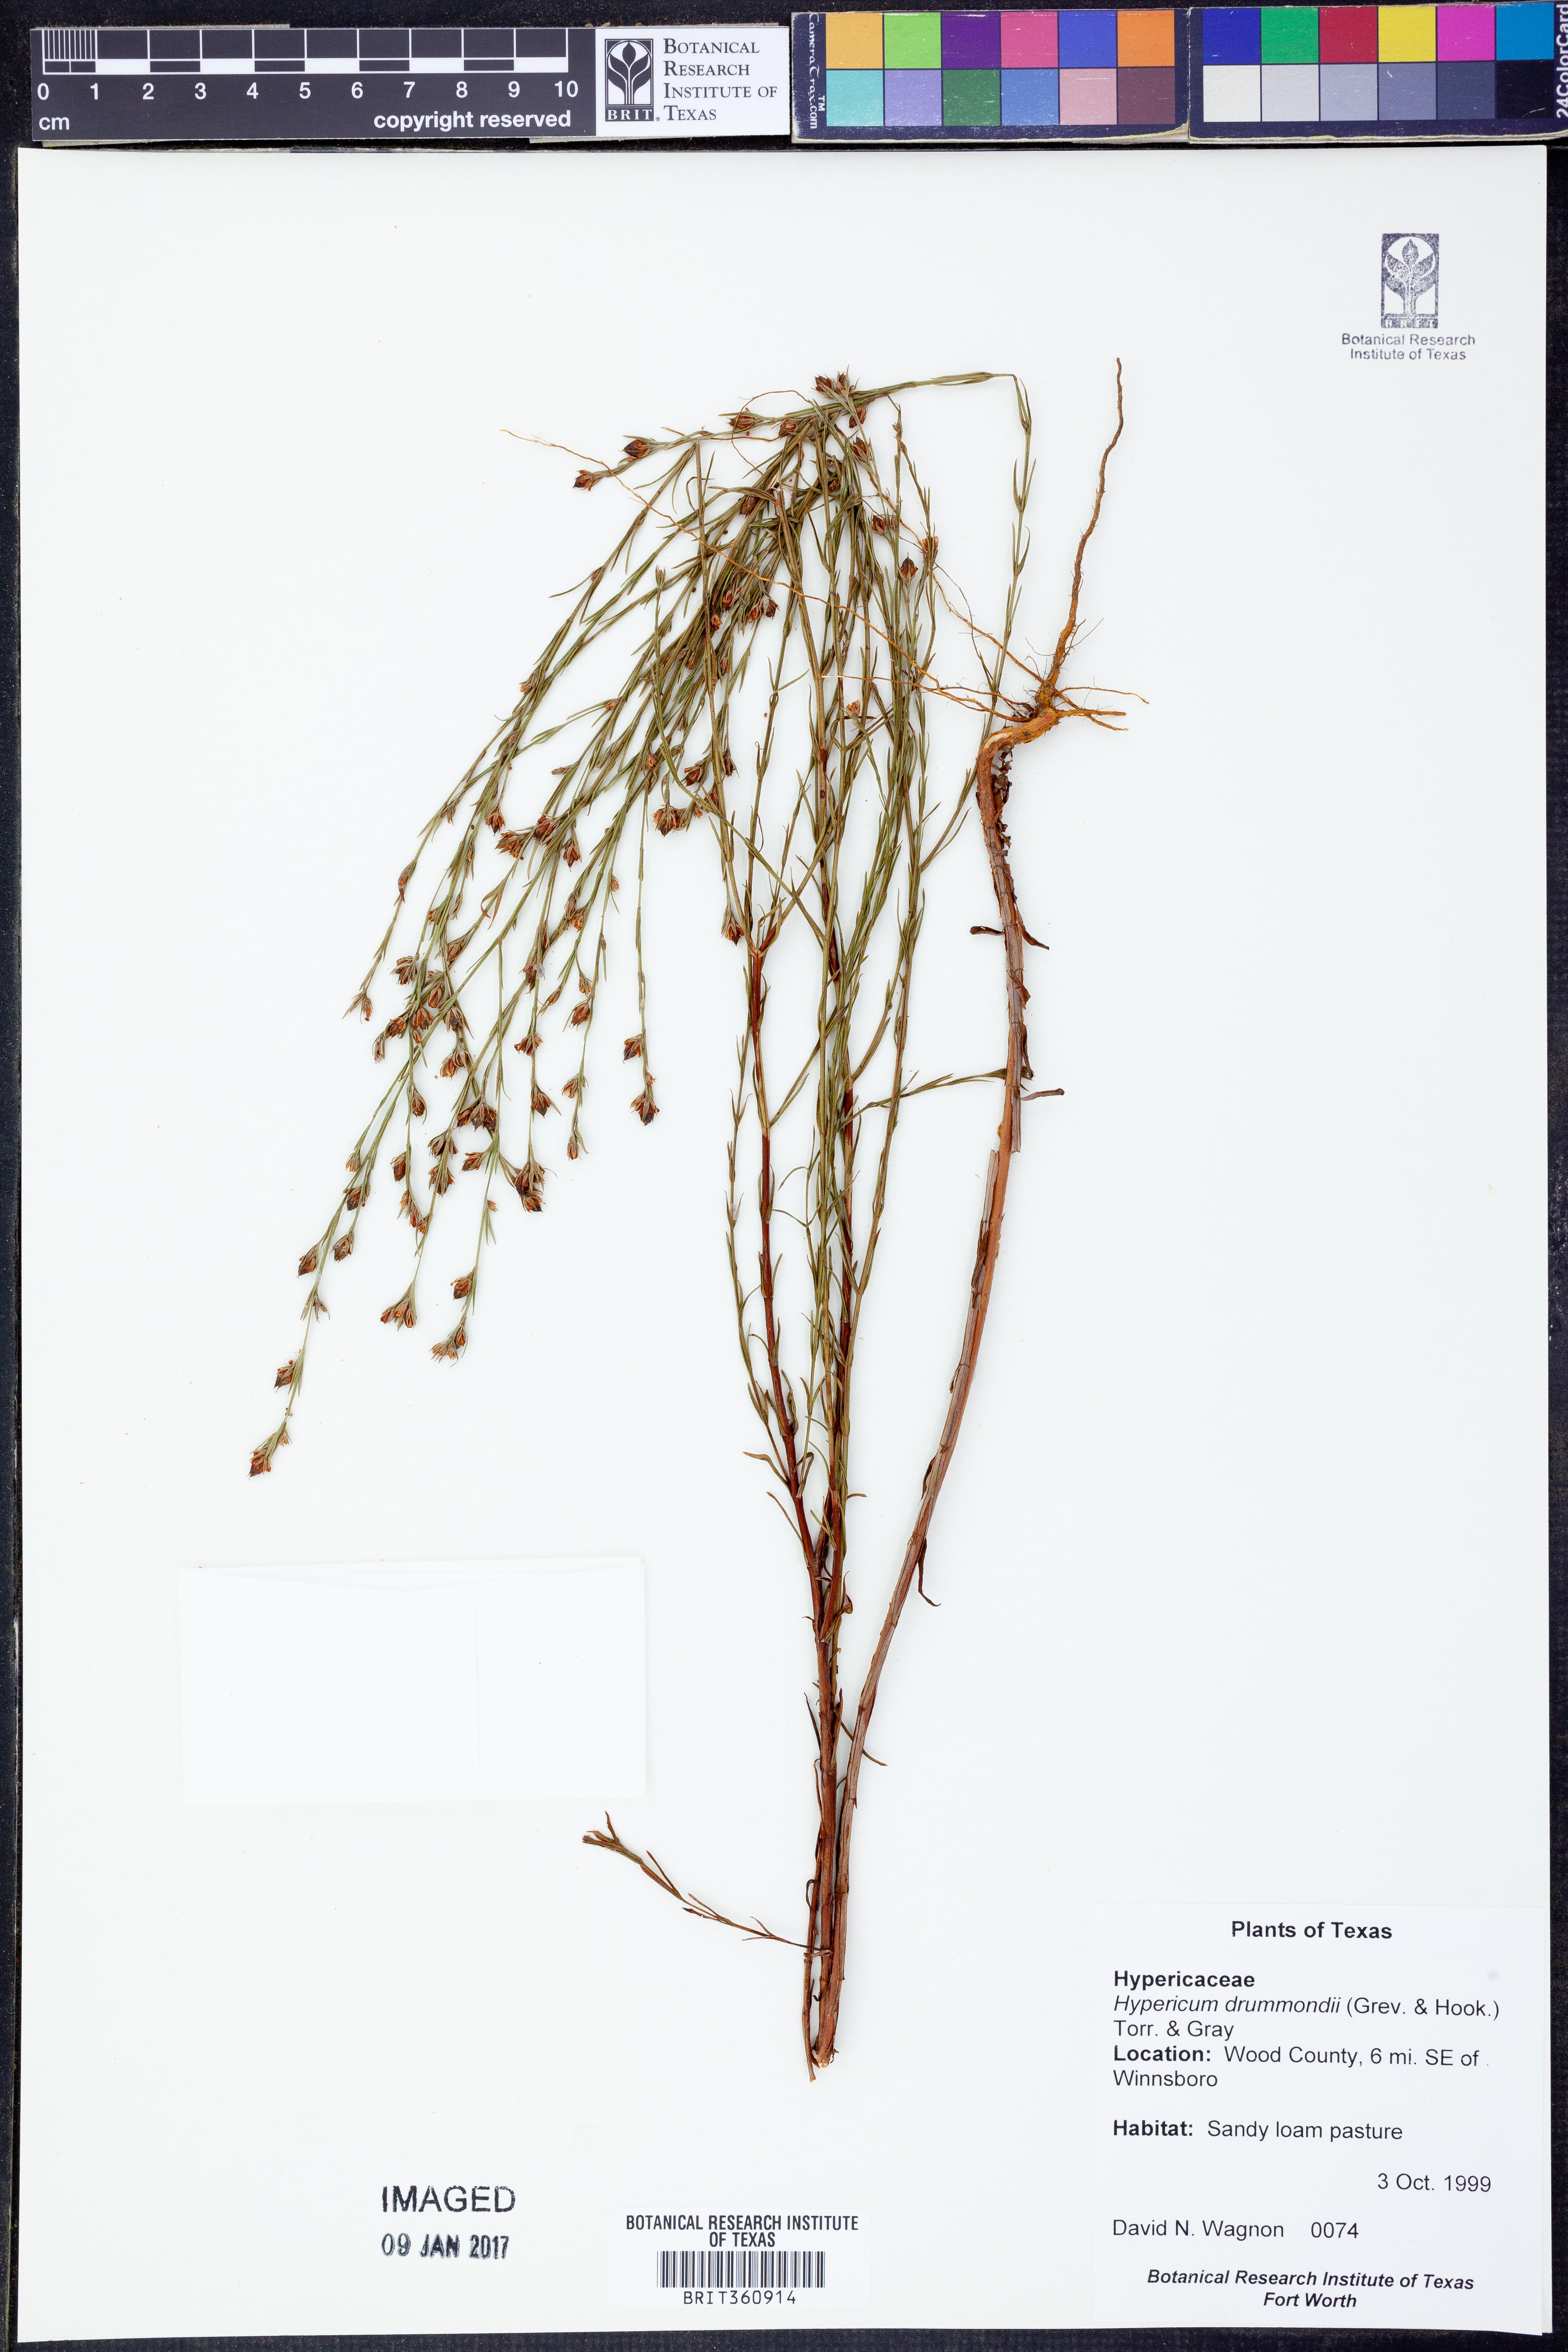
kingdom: Plantae
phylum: Tracheophyta
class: Magnoliopsida
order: Malpighiales
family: Hypericaceae
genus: Hypericum
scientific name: Hypericum drummondii
